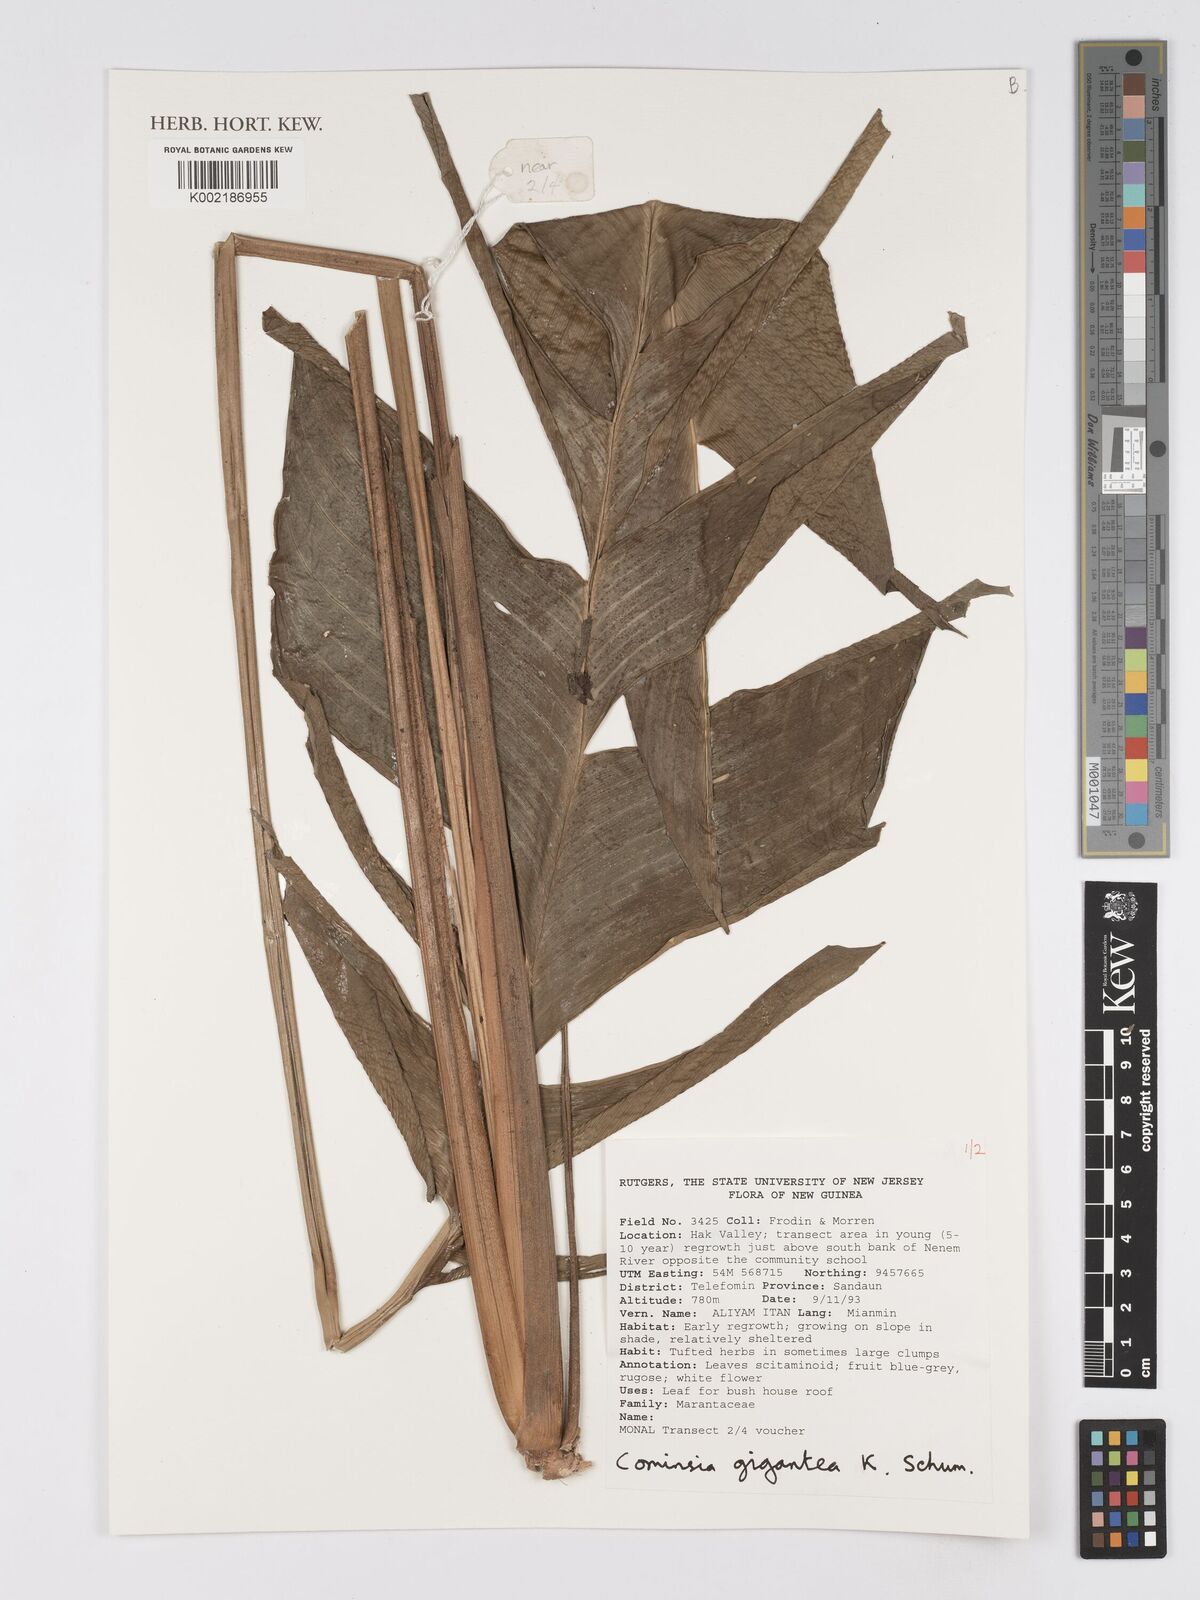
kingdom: Plantae
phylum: Tracheophyta
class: Liliopsida
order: Zingiberales
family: Marantaceae
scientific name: Marantaceae
